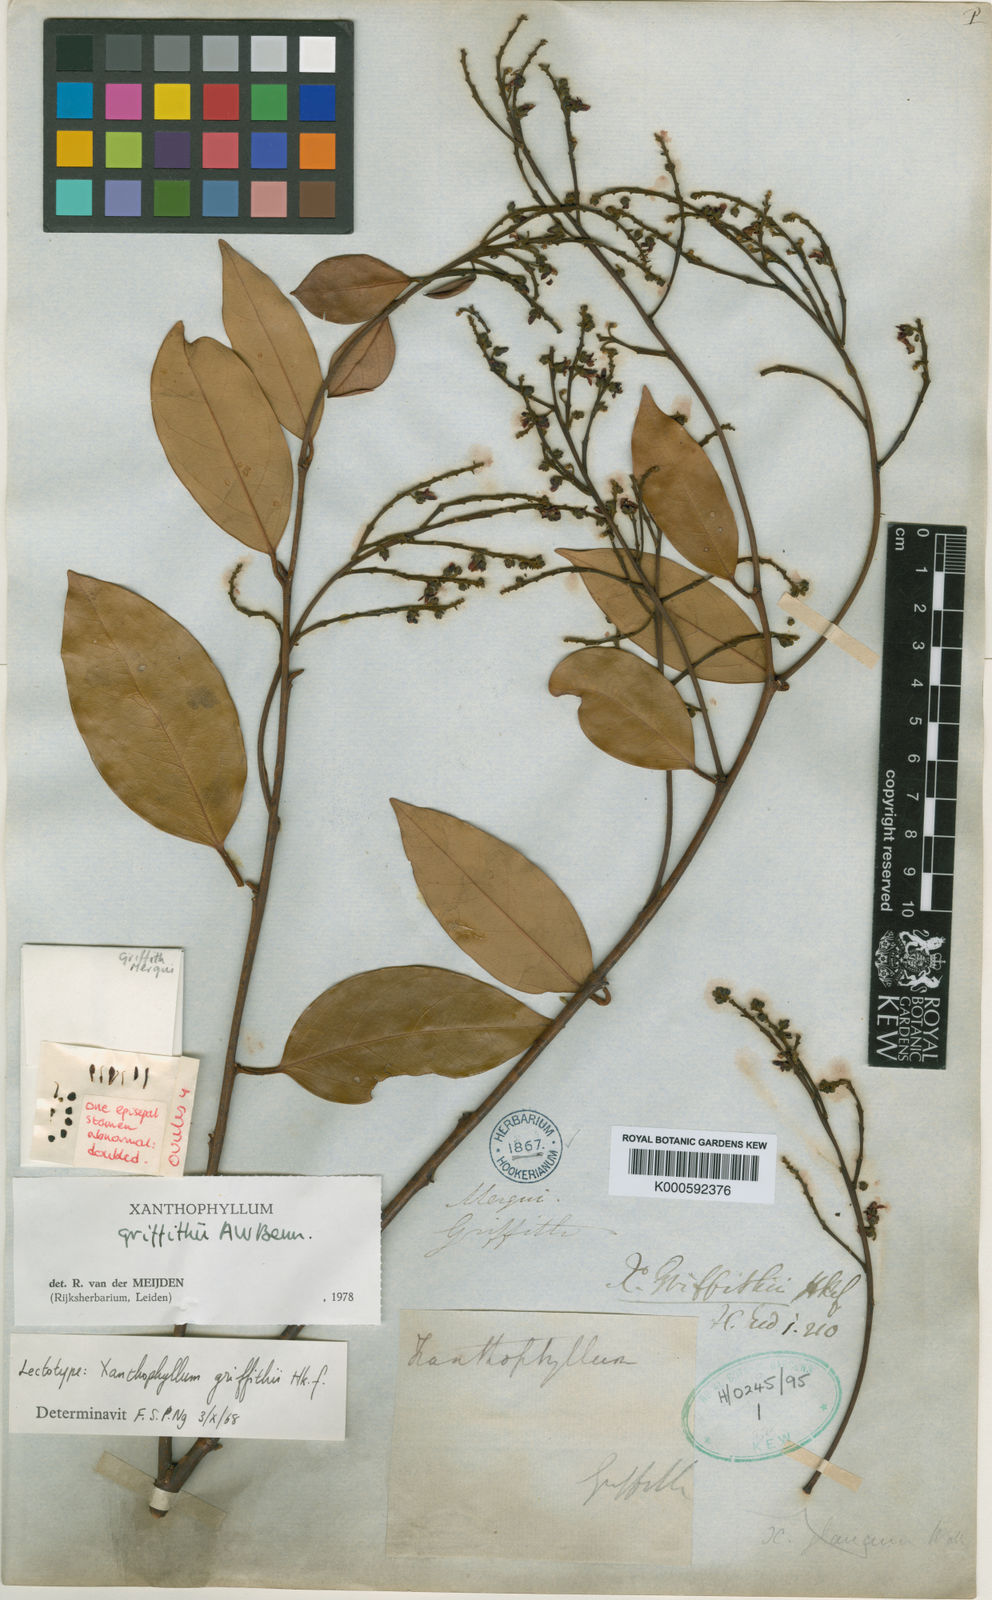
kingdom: Plantae
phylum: Tracheophyta
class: Magnoliopsida
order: Fabales
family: Polygalaceae
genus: Xanthophyllum
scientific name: Xanthophyllum griffithii
